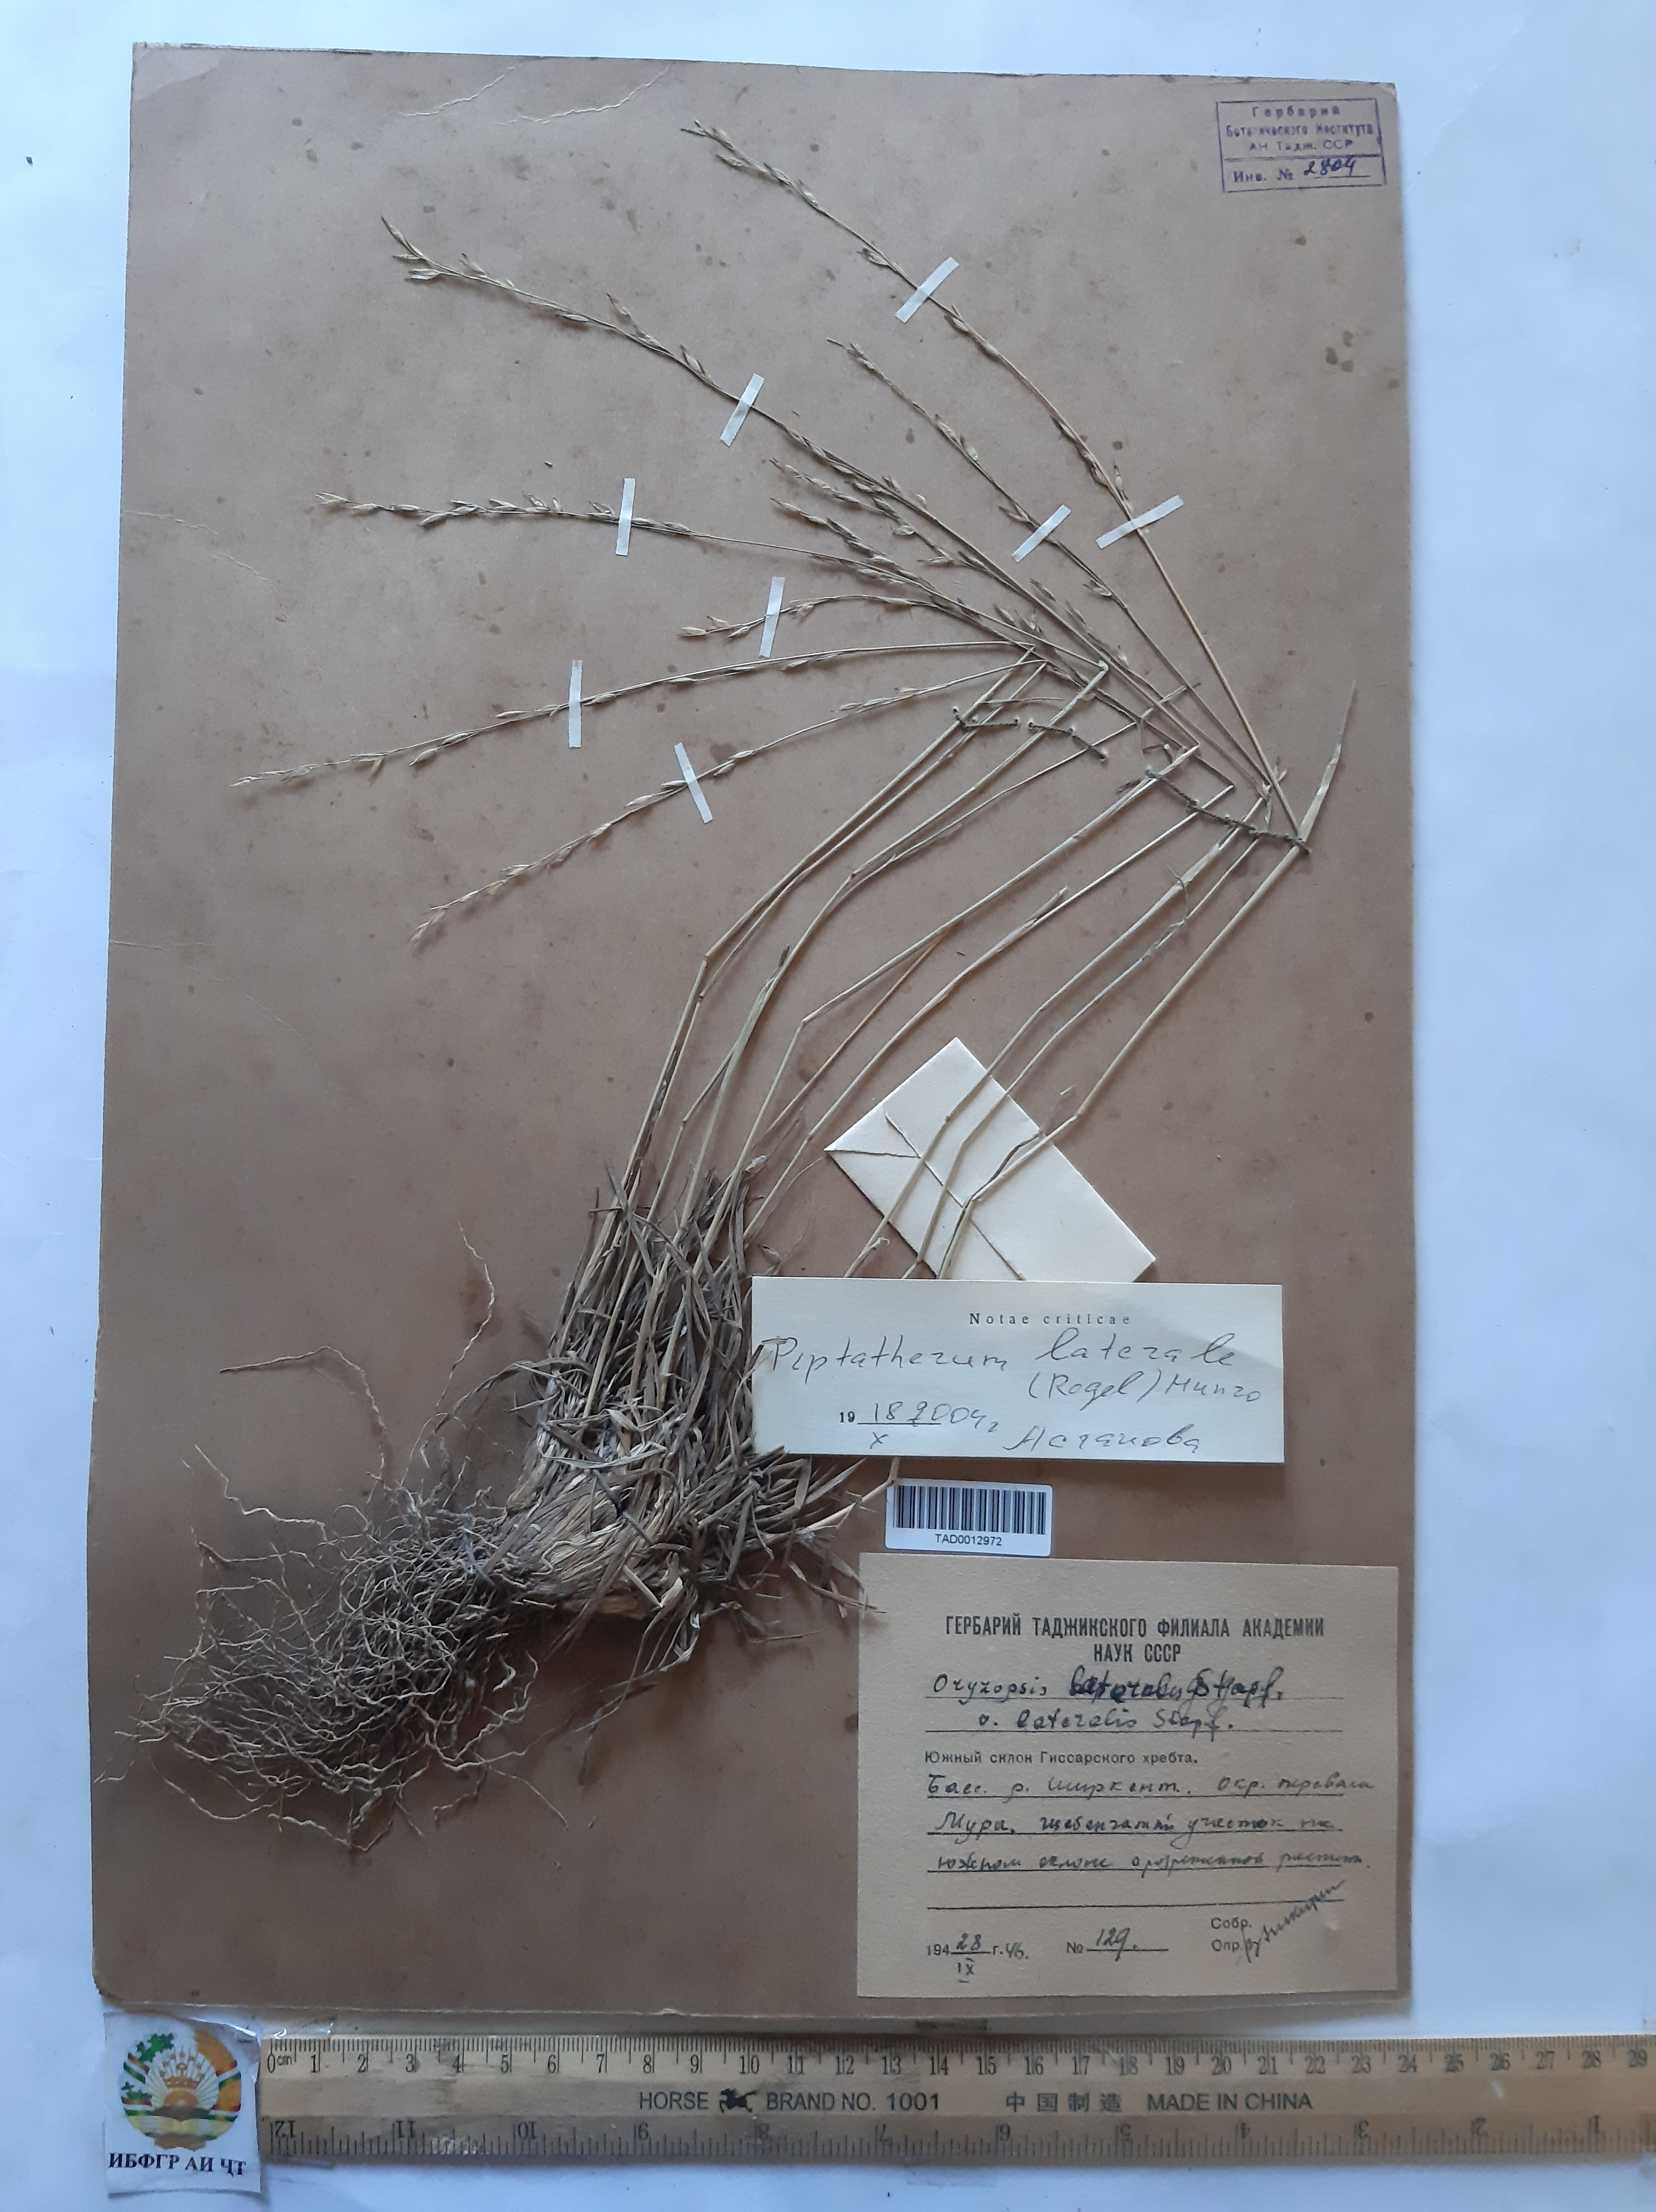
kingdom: Plantae
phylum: Tracheophyta
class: Liliopsida
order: Poales
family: Poaceae
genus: Piptatherum
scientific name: Piptatherum laterale
